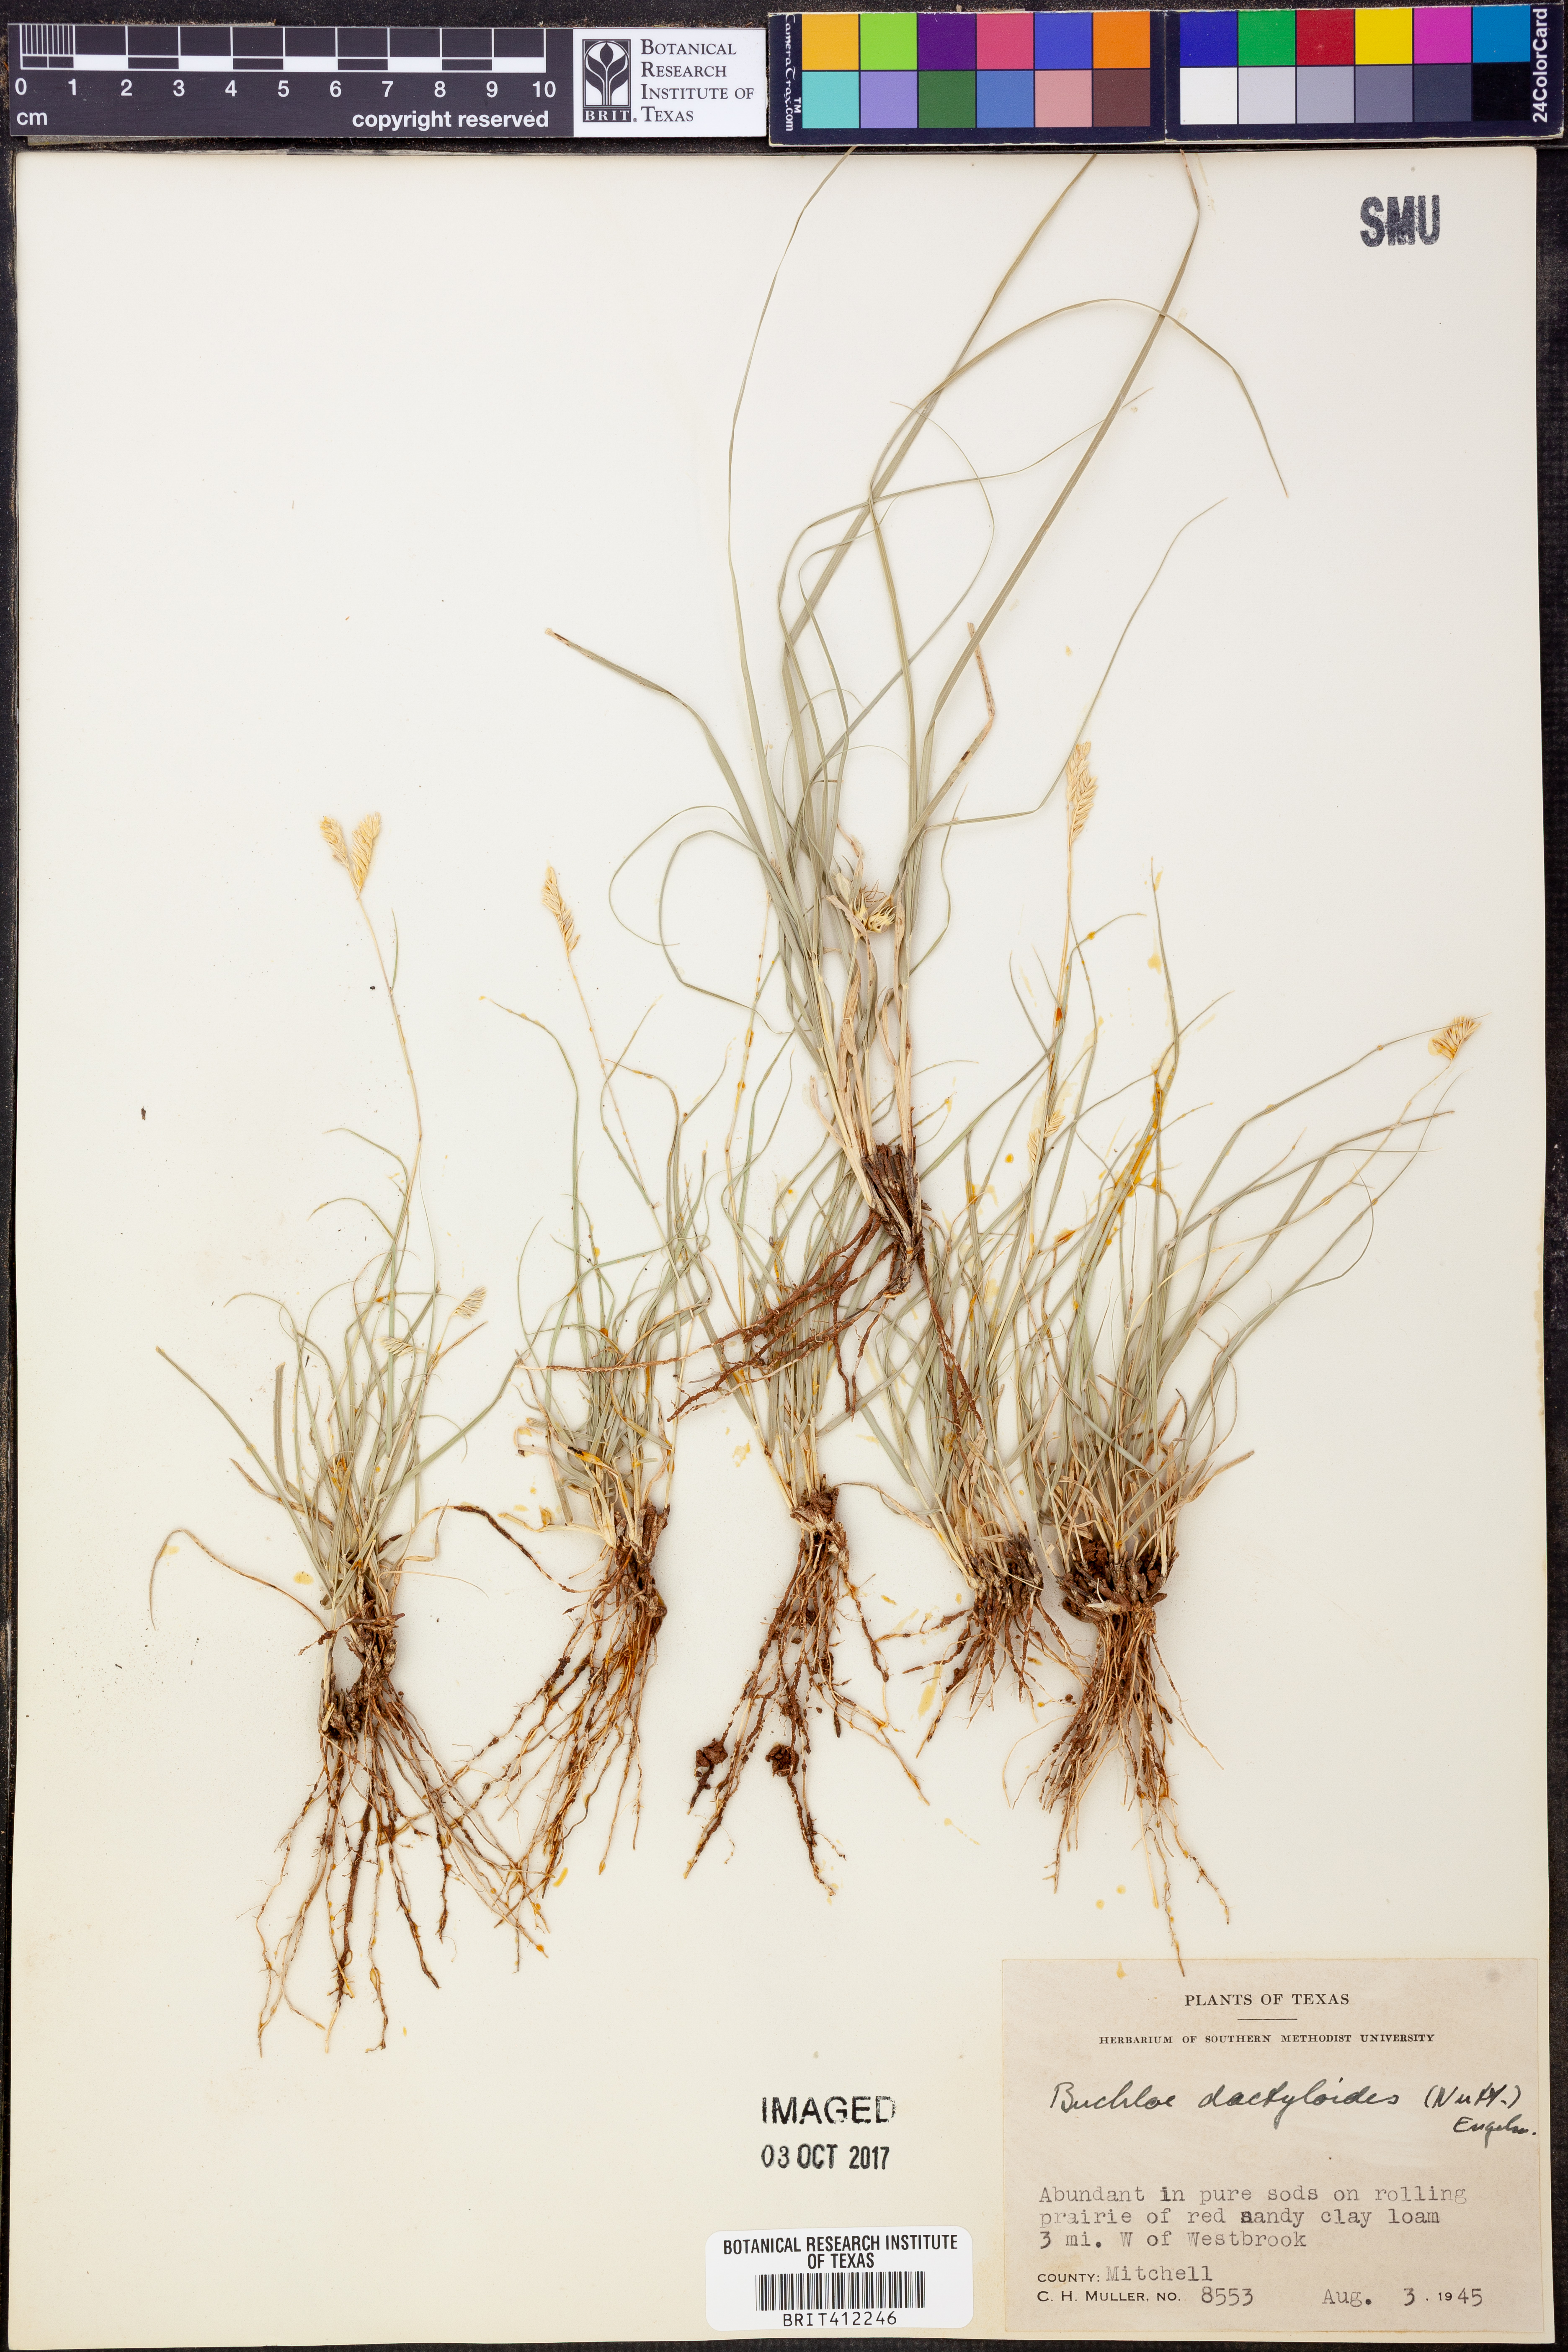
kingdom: Plantae
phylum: Tracheophyta
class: Liliopsida
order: Poales
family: Poaceae
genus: Bouteloua
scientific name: Bouteloua dactyloides
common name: Buffalo grass
